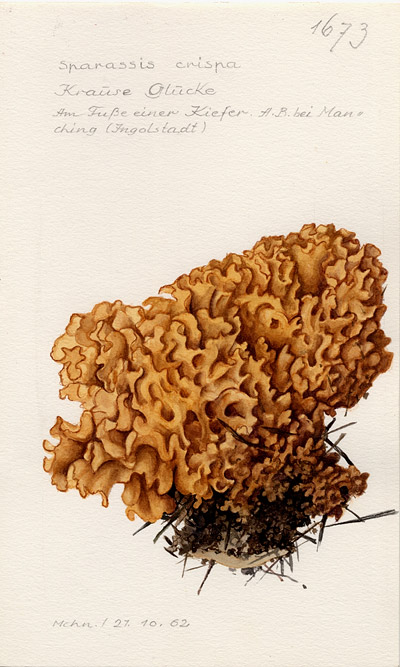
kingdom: Fungi
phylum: Basidiomycota
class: Agaricomycetes
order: Polyporales
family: Sparassidaceae
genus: Sparassis
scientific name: Sparassis crispa
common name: Brain fungus
